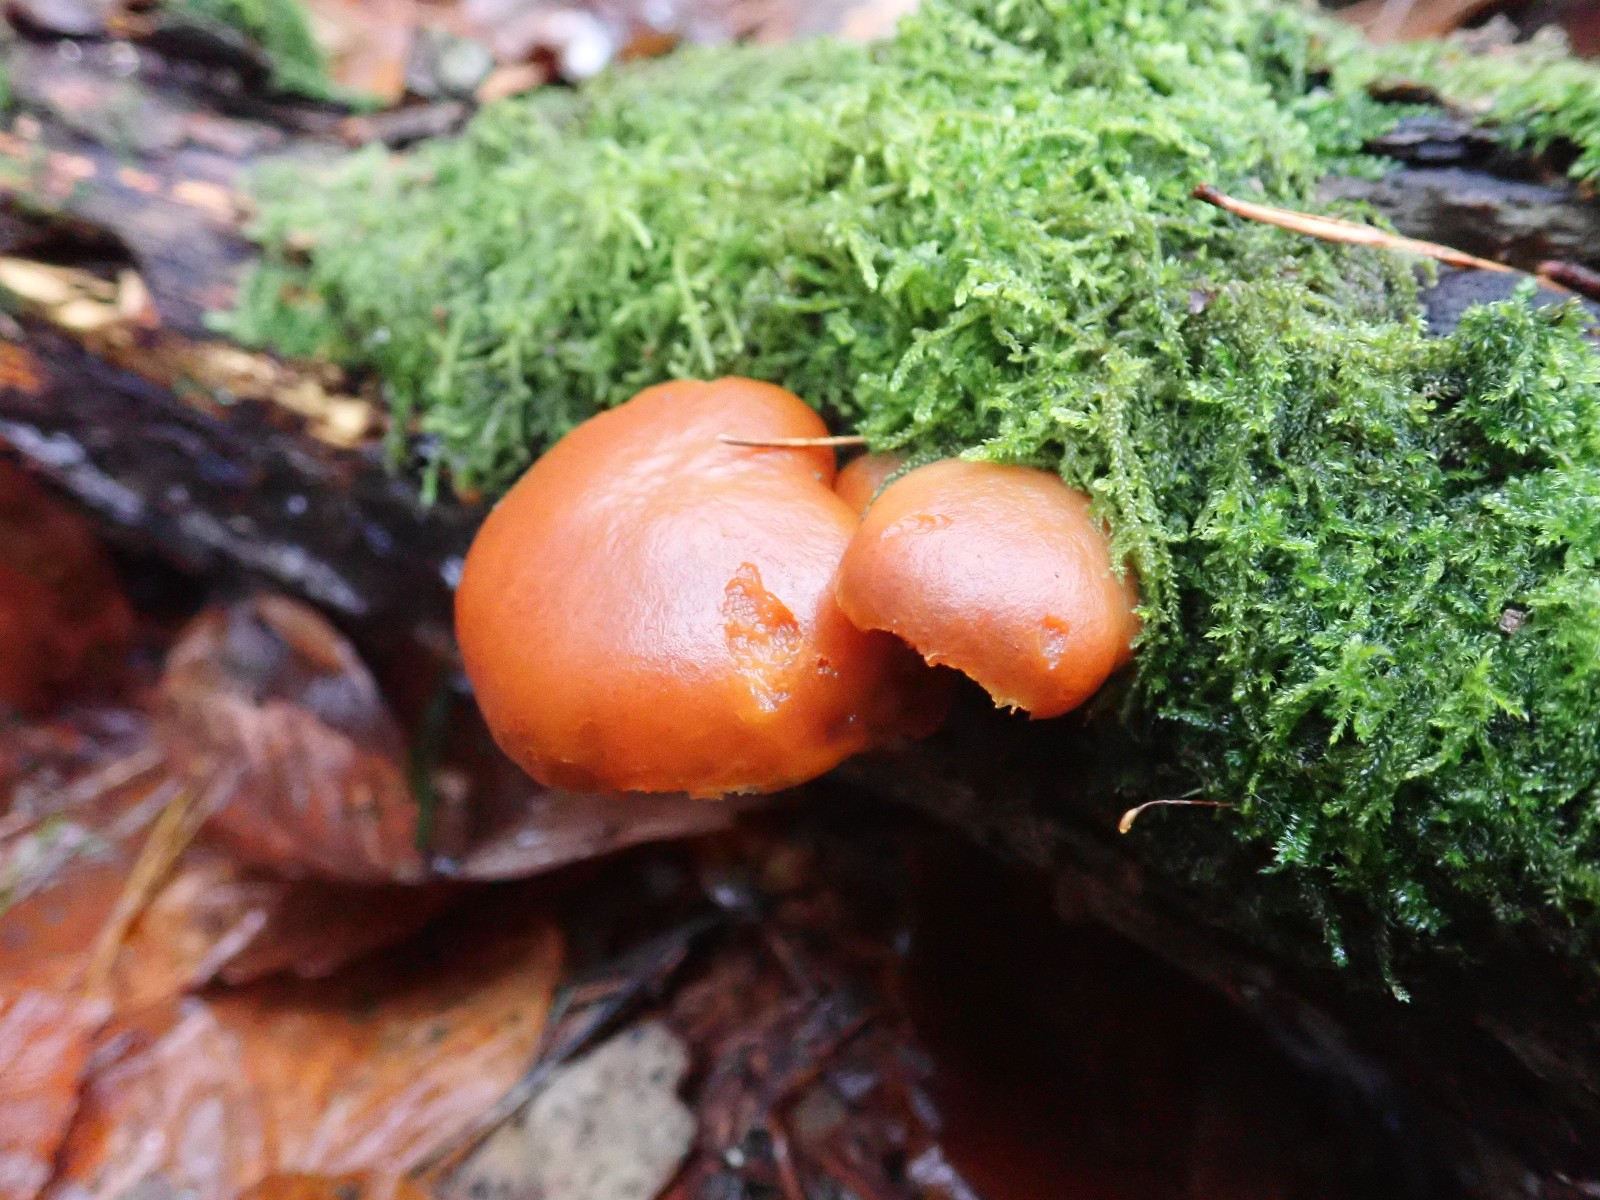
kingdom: Fungi
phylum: Basidiomycota
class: Agaricomycetes
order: Agaricales
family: Hymenogastraceae
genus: Gymnopilus
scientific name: Gymnopilus penetrans
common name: plettet flammehat
